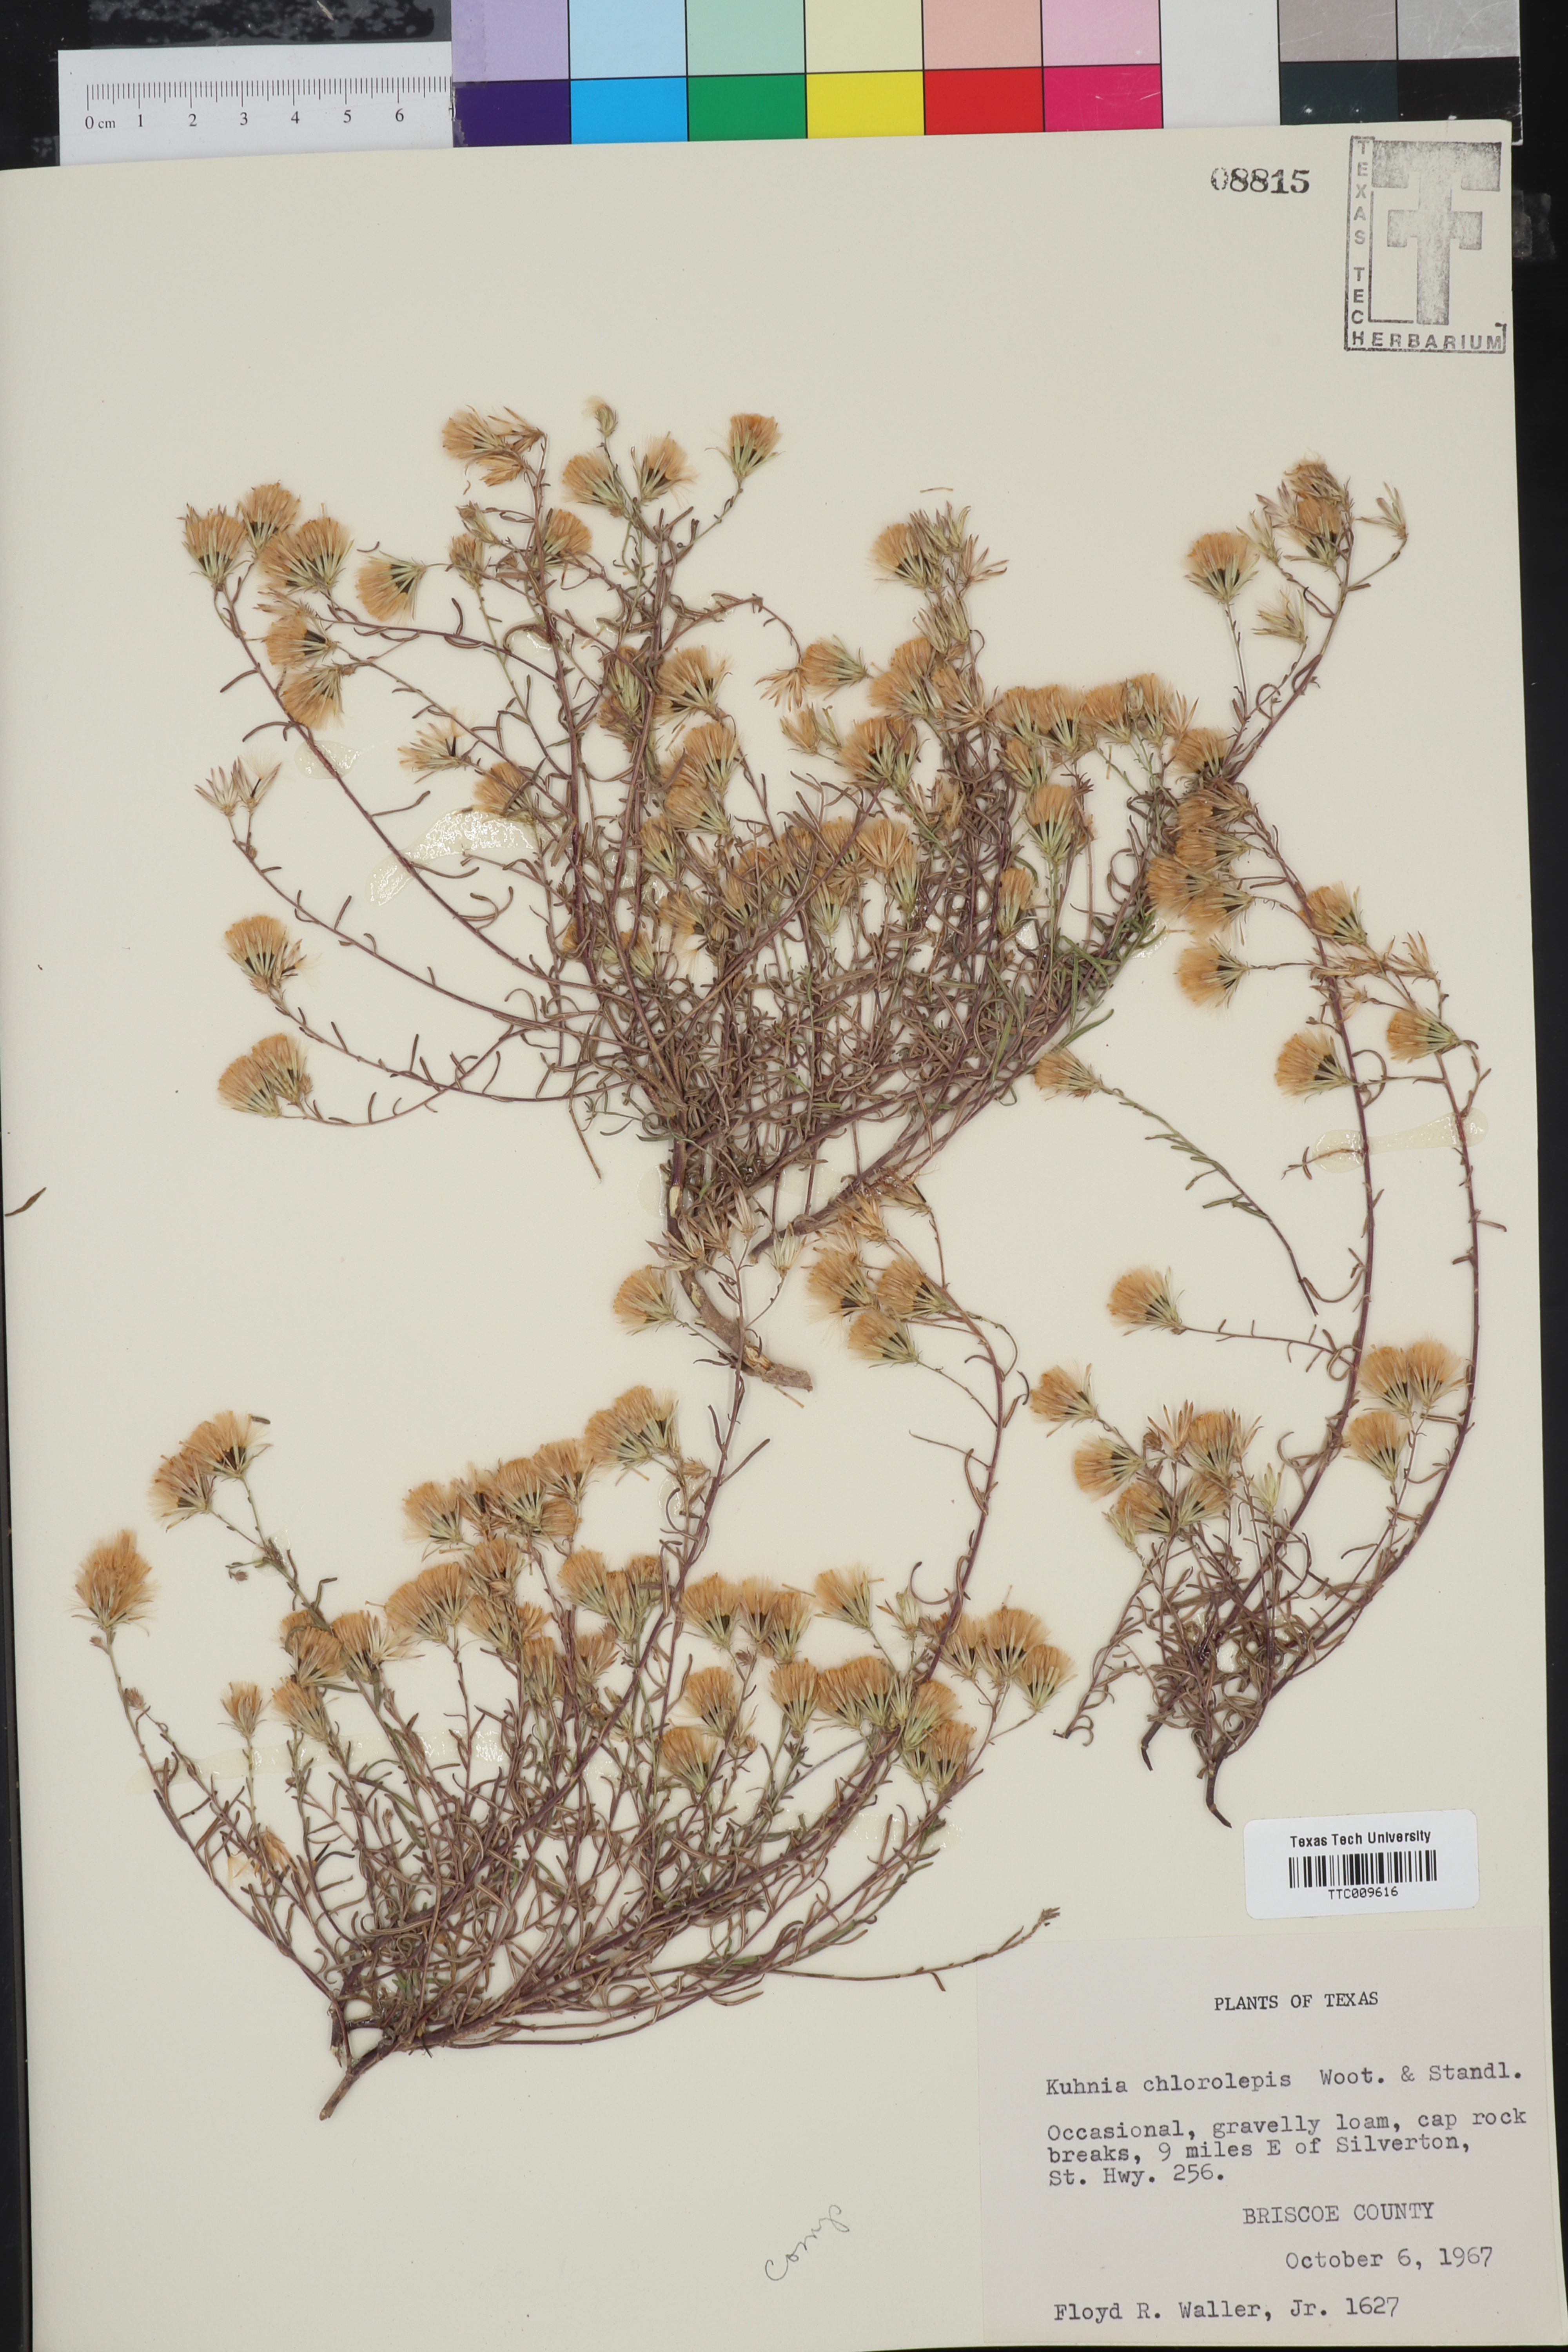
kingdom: Plantae
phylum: Tracheophyta
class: Magnoliopsida
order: Asterales
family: Asteraceae
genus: Brickellia
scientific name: Brickellia leptophylla
